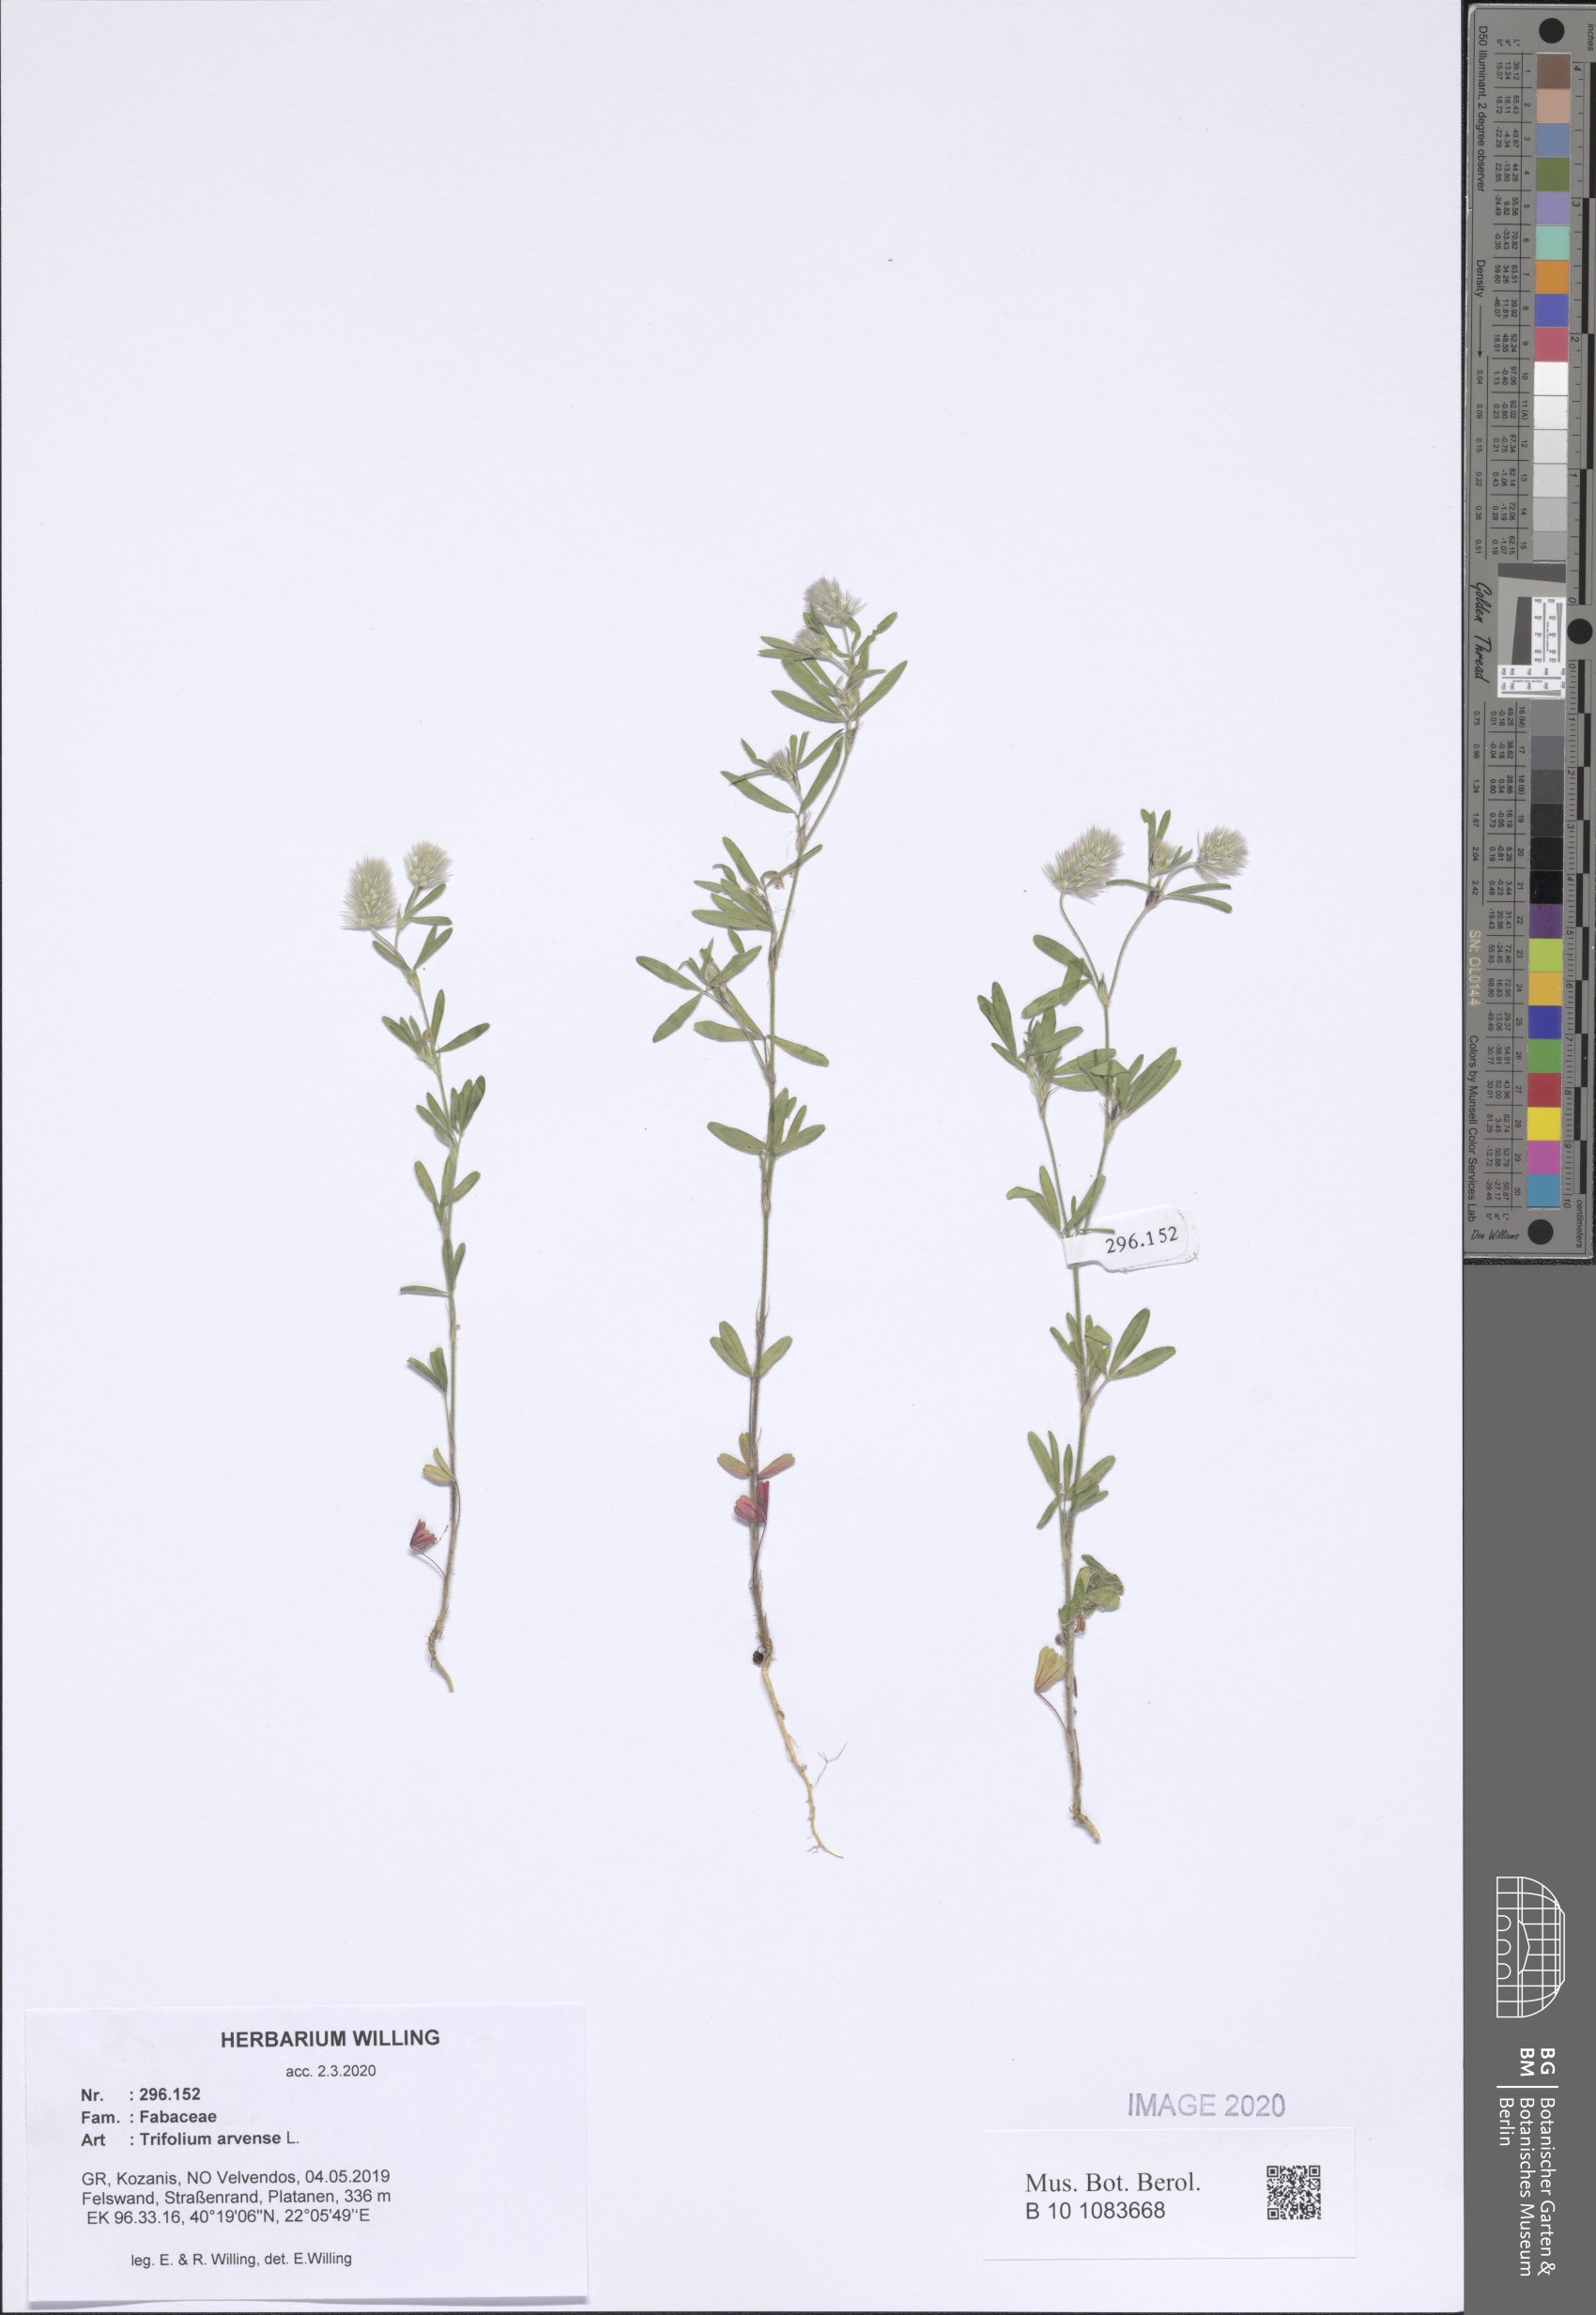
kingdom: Plantae
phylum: Tracheophyta
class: Magnoliopsida
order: Fabales
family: Fabaceae
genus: Trifolium
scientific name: Trifolium arvense
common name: Hare's-foot clover
